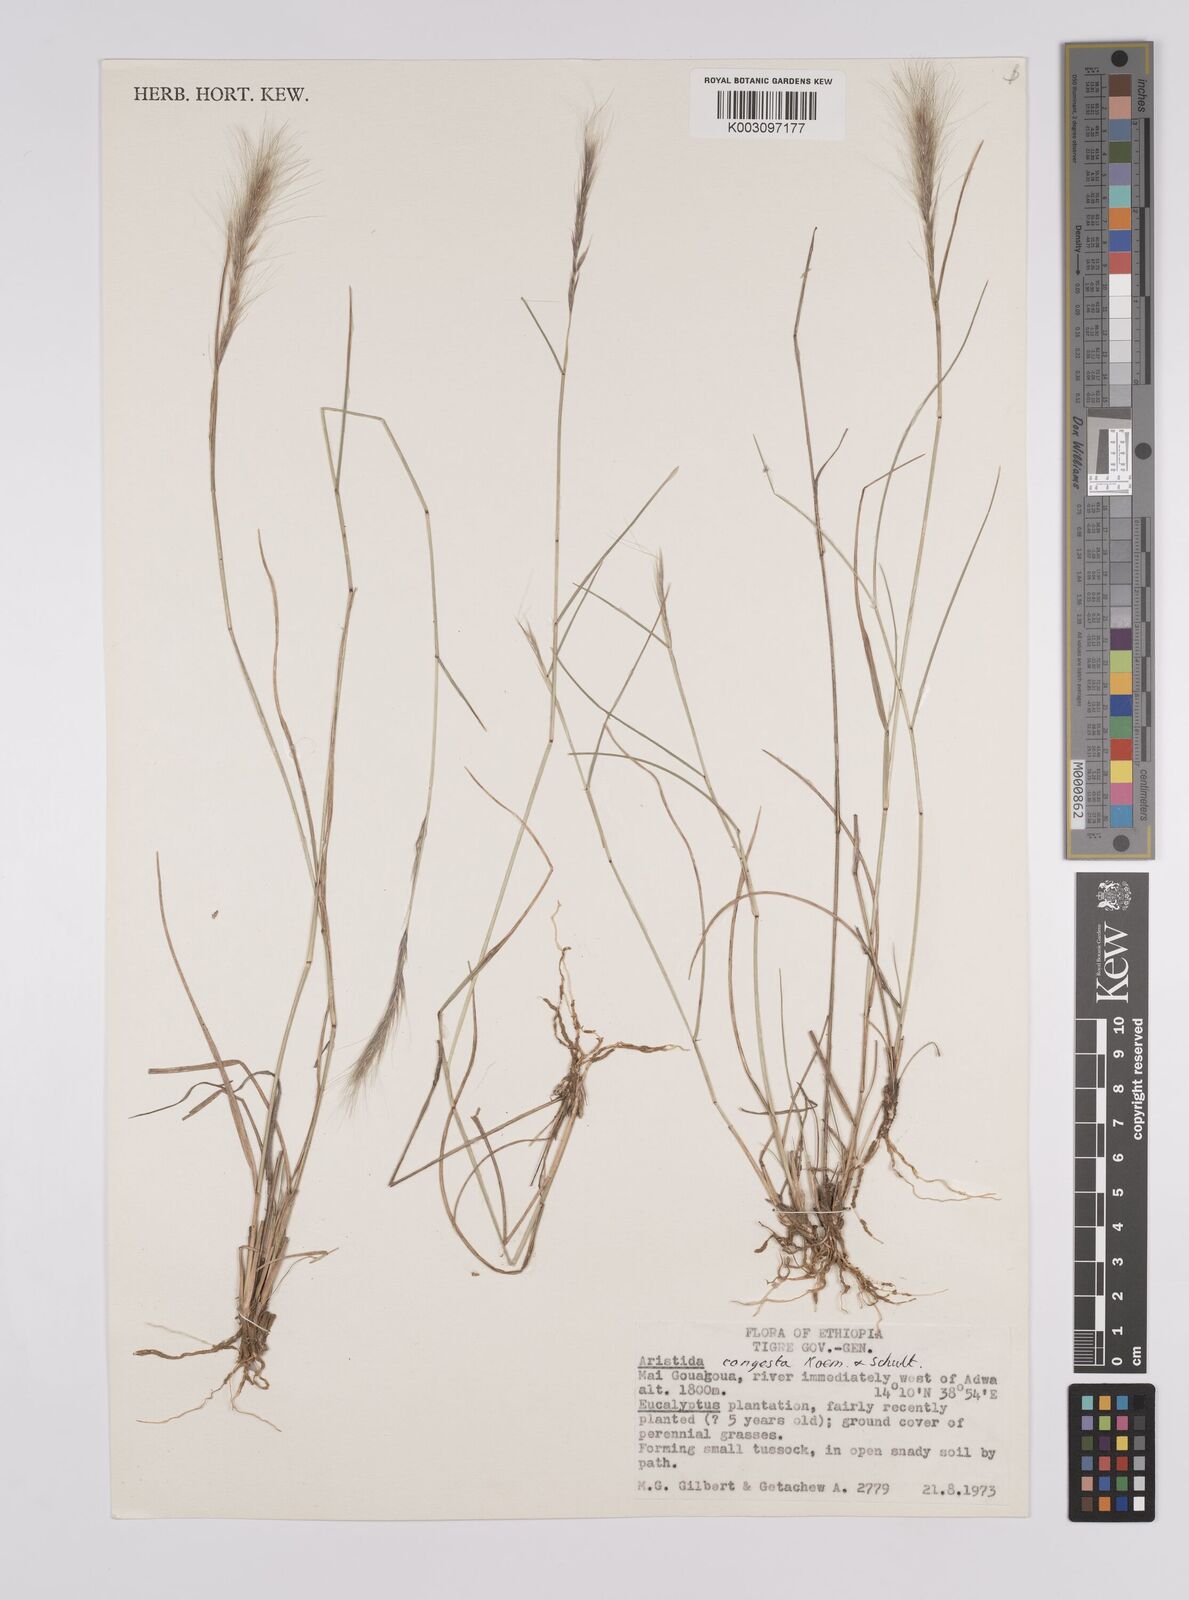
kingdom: Plantae
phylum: Tracheophyta
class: Liliopsida
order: Poales
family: Poaceae
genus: Aristida
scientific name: Aristida congesta
